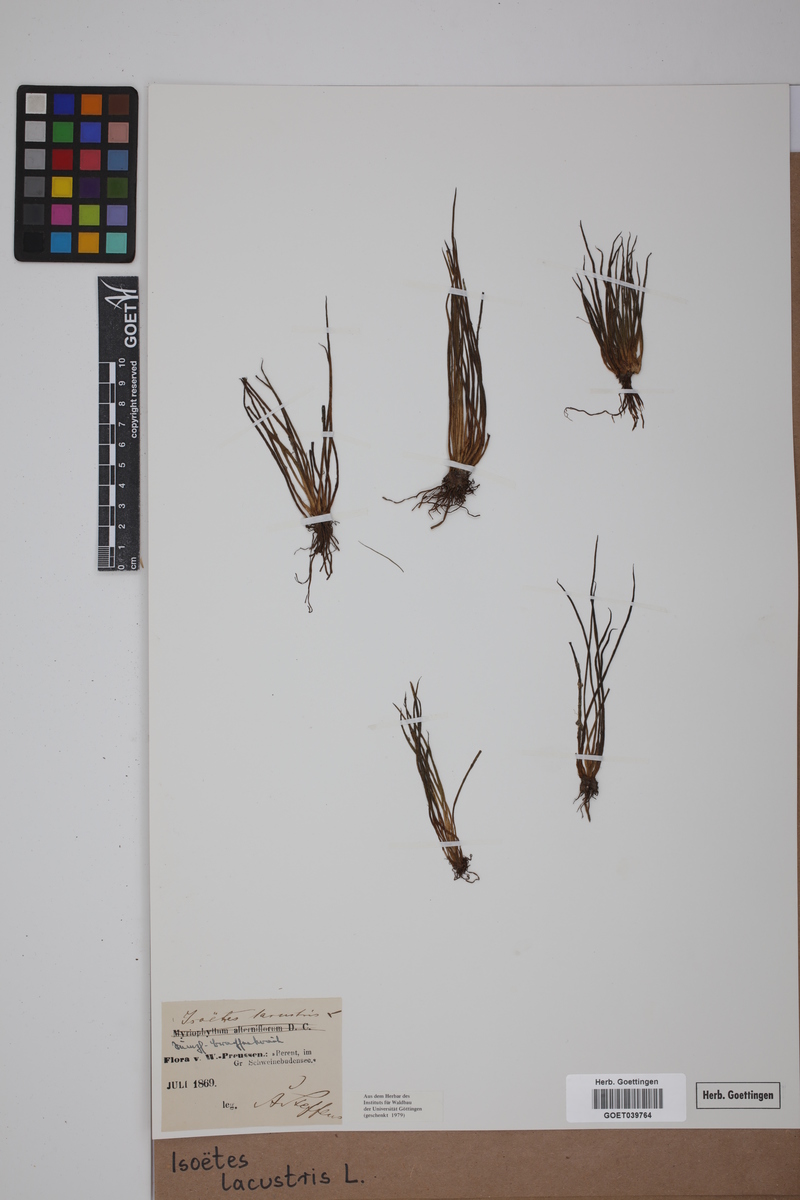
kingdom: Plantae
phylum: Tracheophyta
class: Lycopodiopsida
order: Isoetales
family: Isoetaceae
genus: Isoetes
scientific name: Isoetes lacustris
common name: Common quillwort
